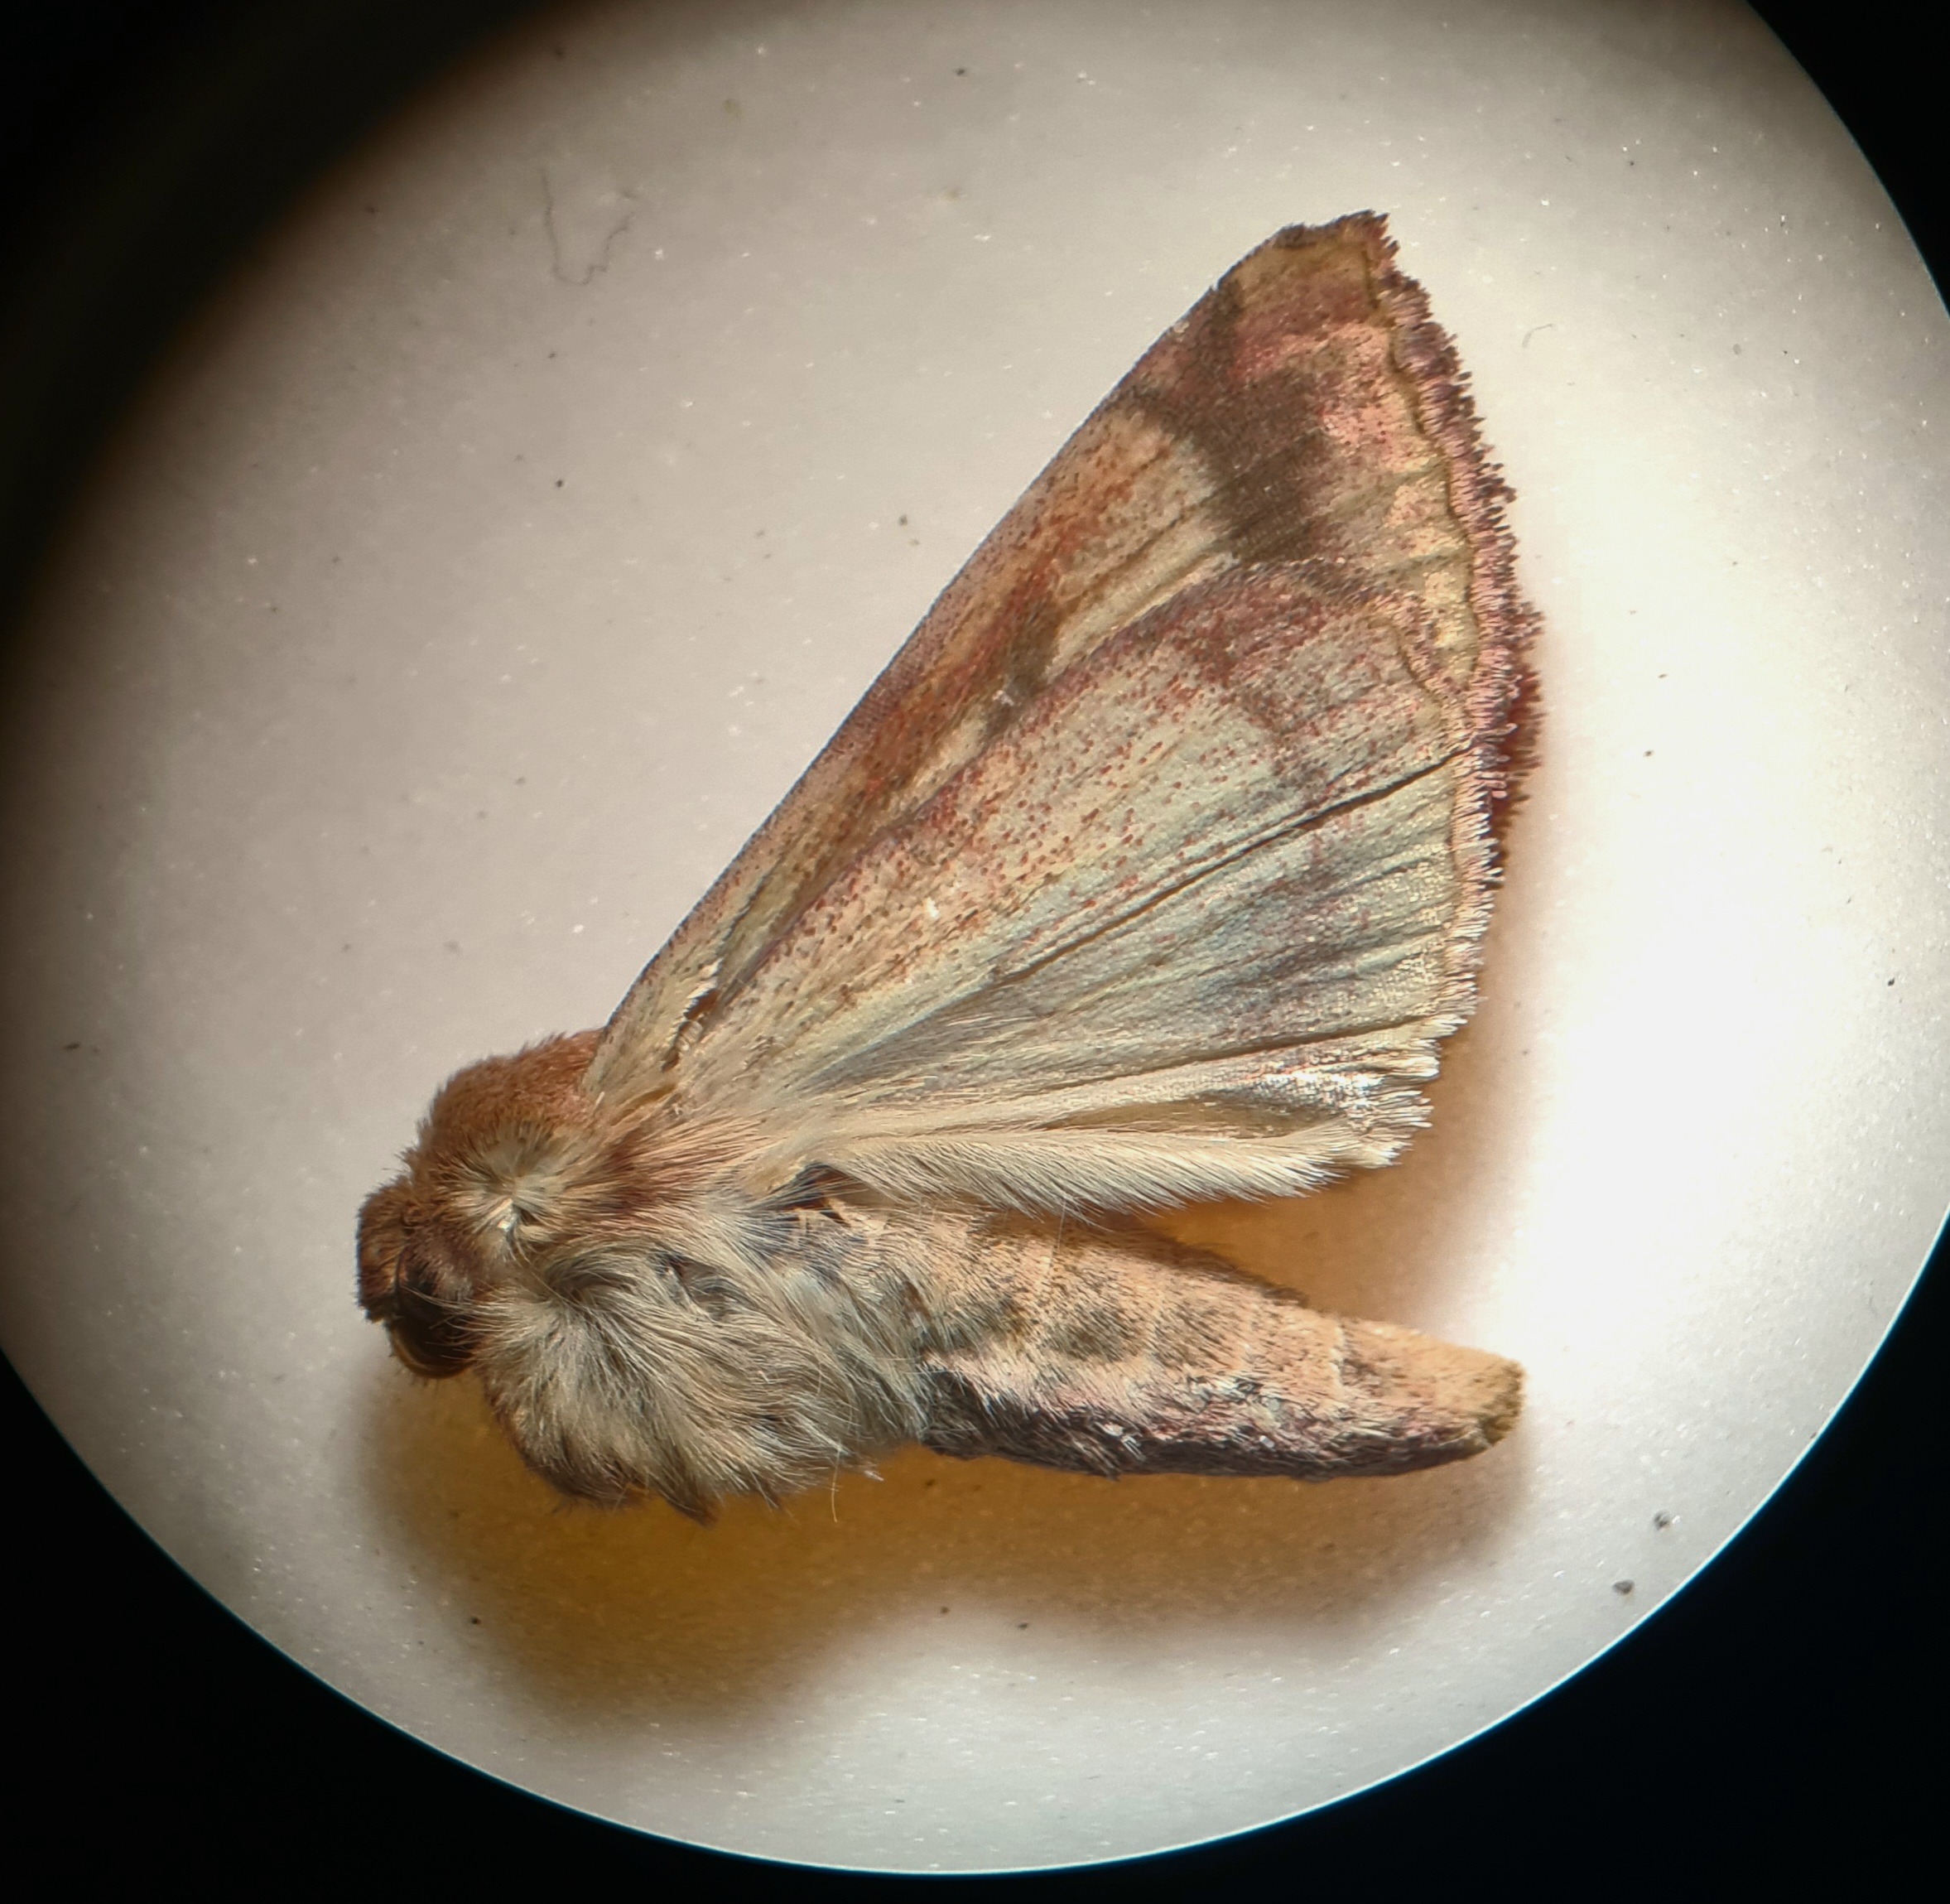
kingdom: Animalia
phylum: Arthropoda
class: Insecta
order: Lepidoptera
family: Noctuidae
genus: Pyrrhia
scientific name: Pyrrhia umbra
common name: Krageklougle
